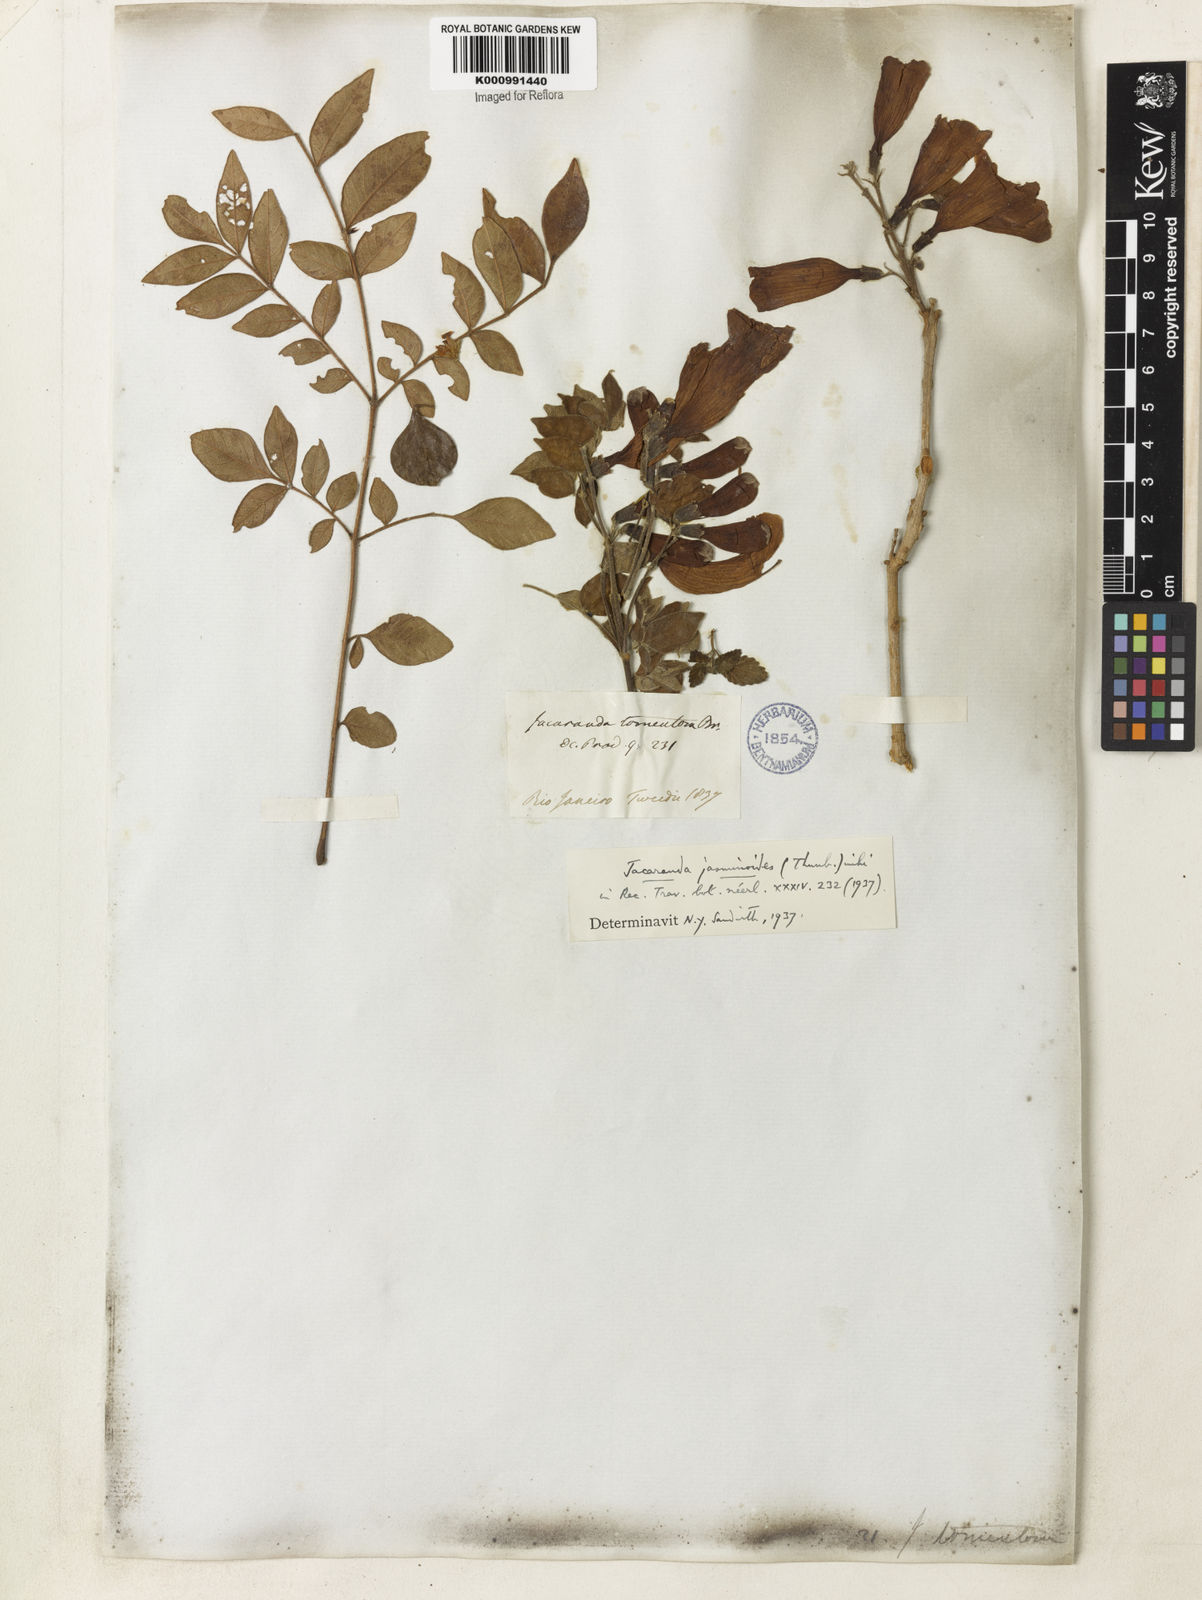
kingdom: Plantae
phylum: Tracheophyta
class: Magnoliopsida
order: Lamiales
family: Bignoniaceae
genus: Jacaranda
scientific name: Jacaranda jasminoides
